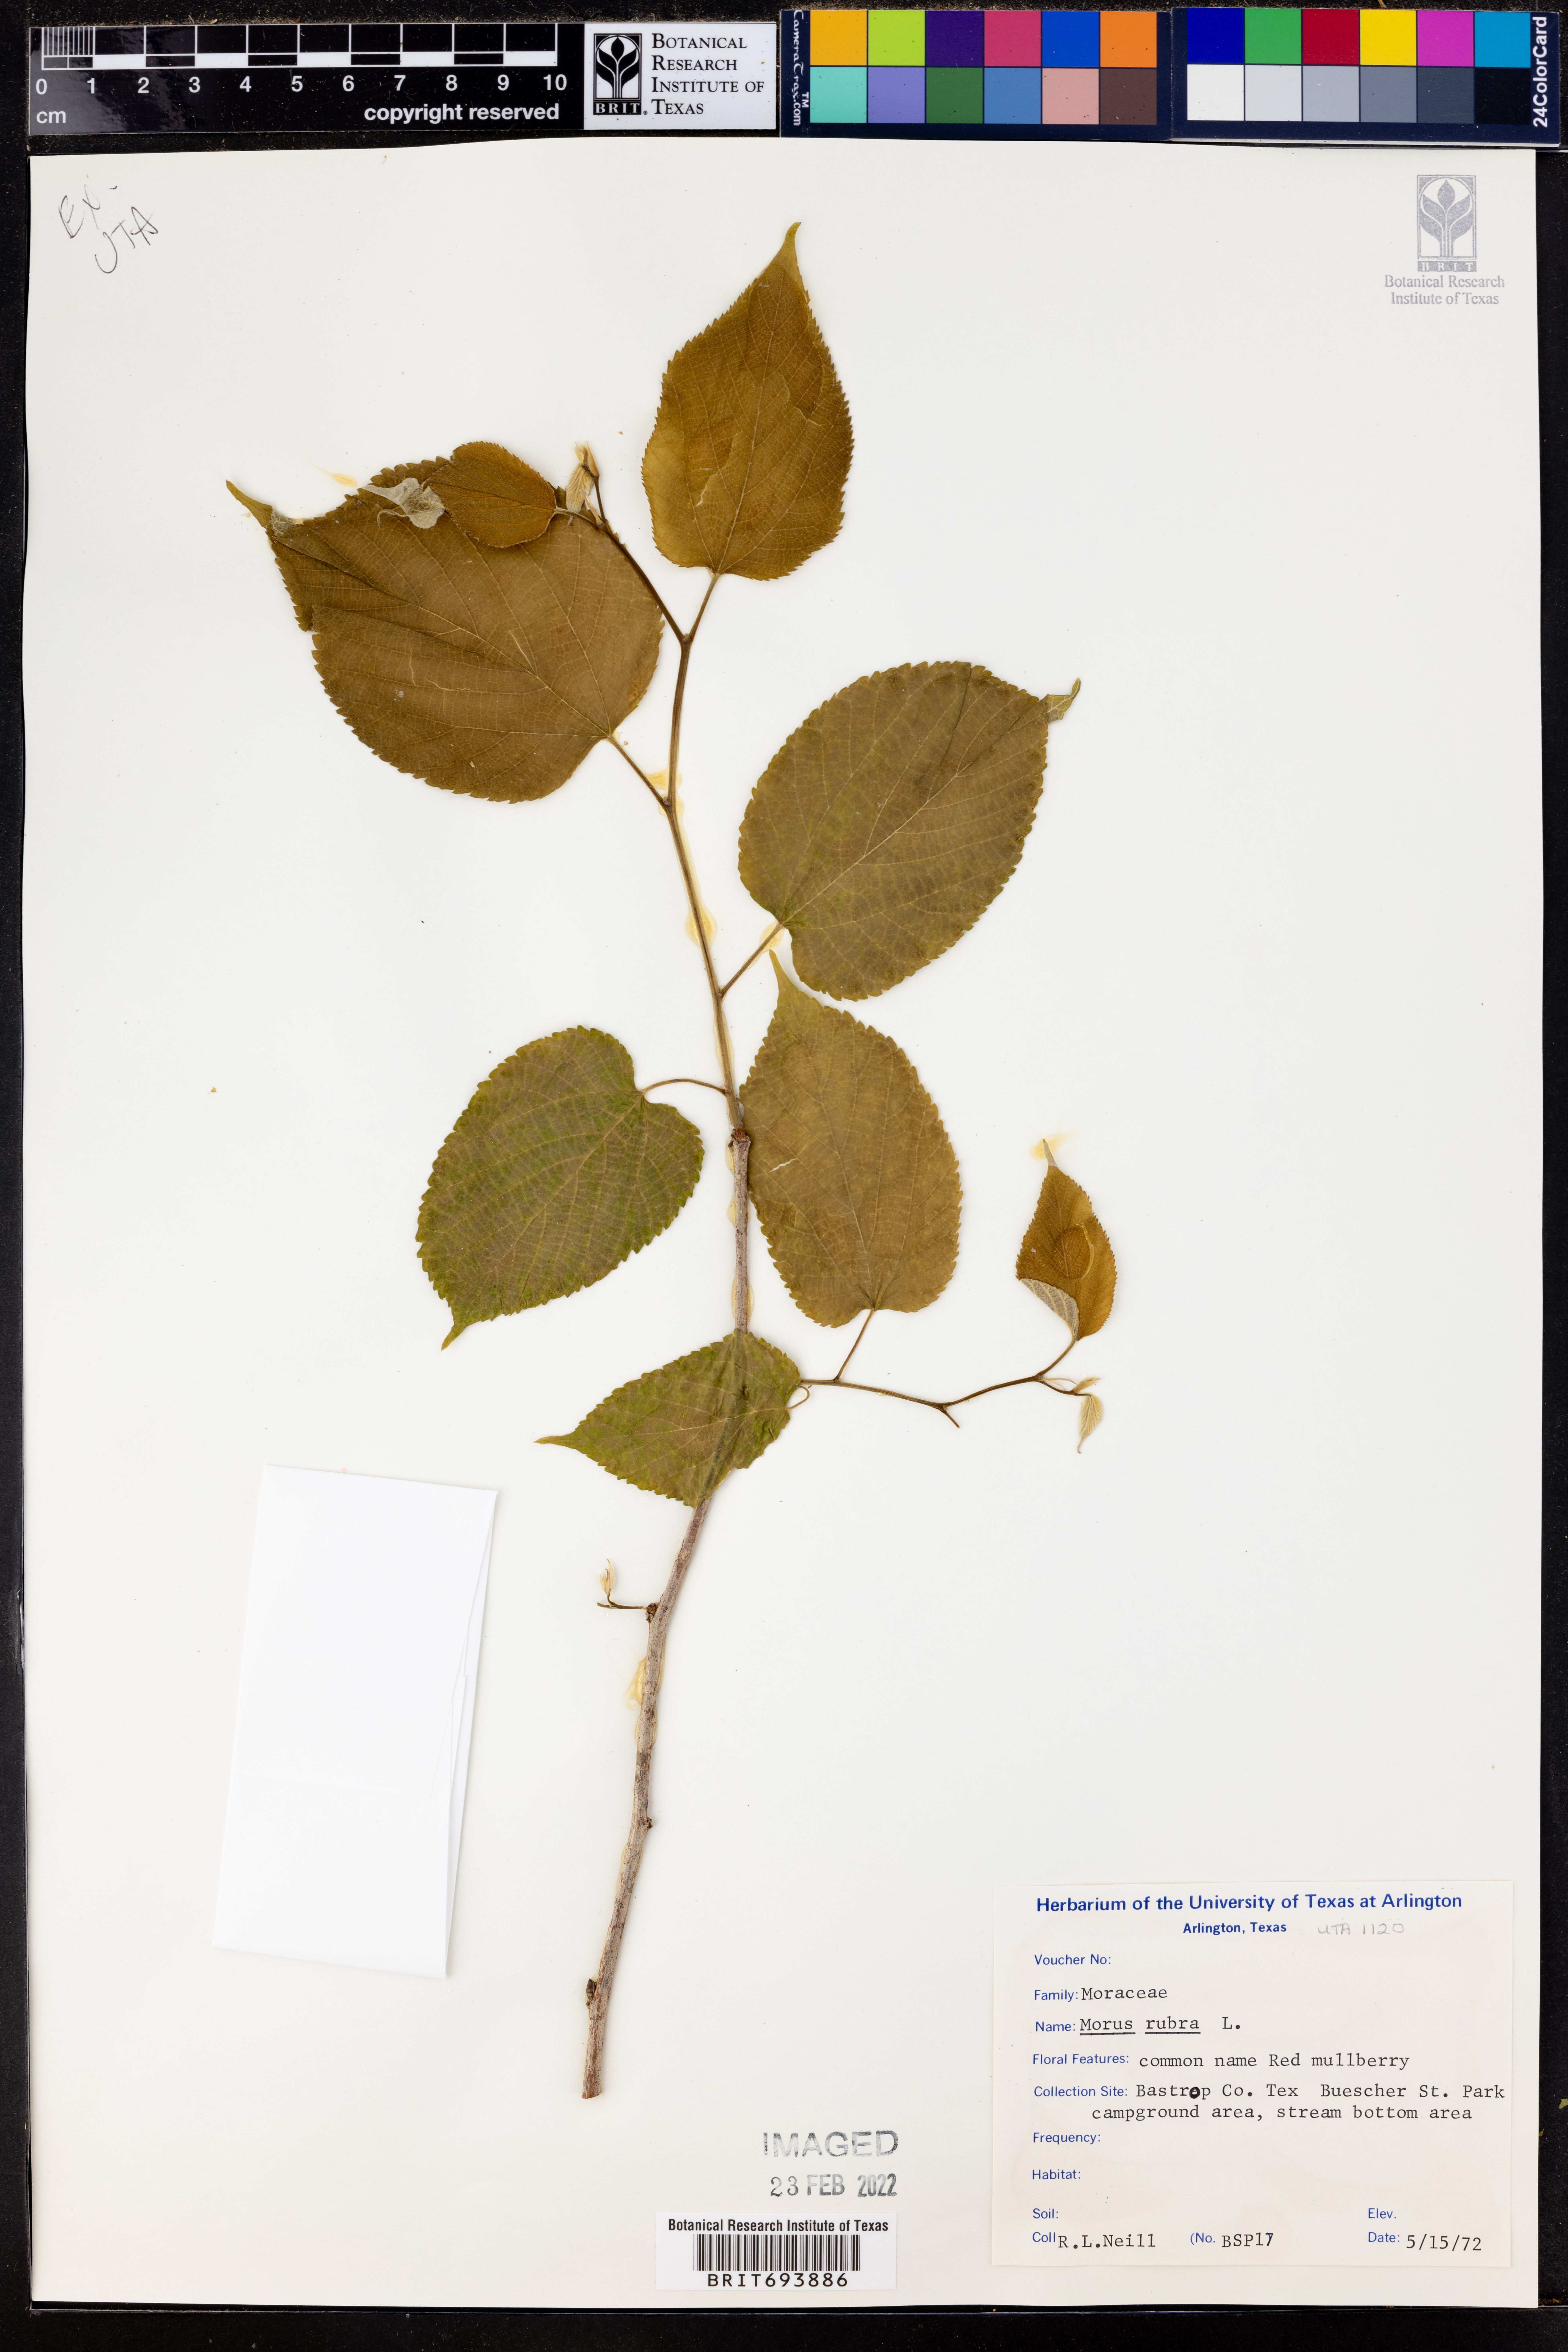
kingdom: Plantae
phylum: Tracheophyta
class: Magnoliopsida
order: Rosales
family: Moraceae
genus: Morus
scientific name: Morus rubra
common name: Red mulberry
